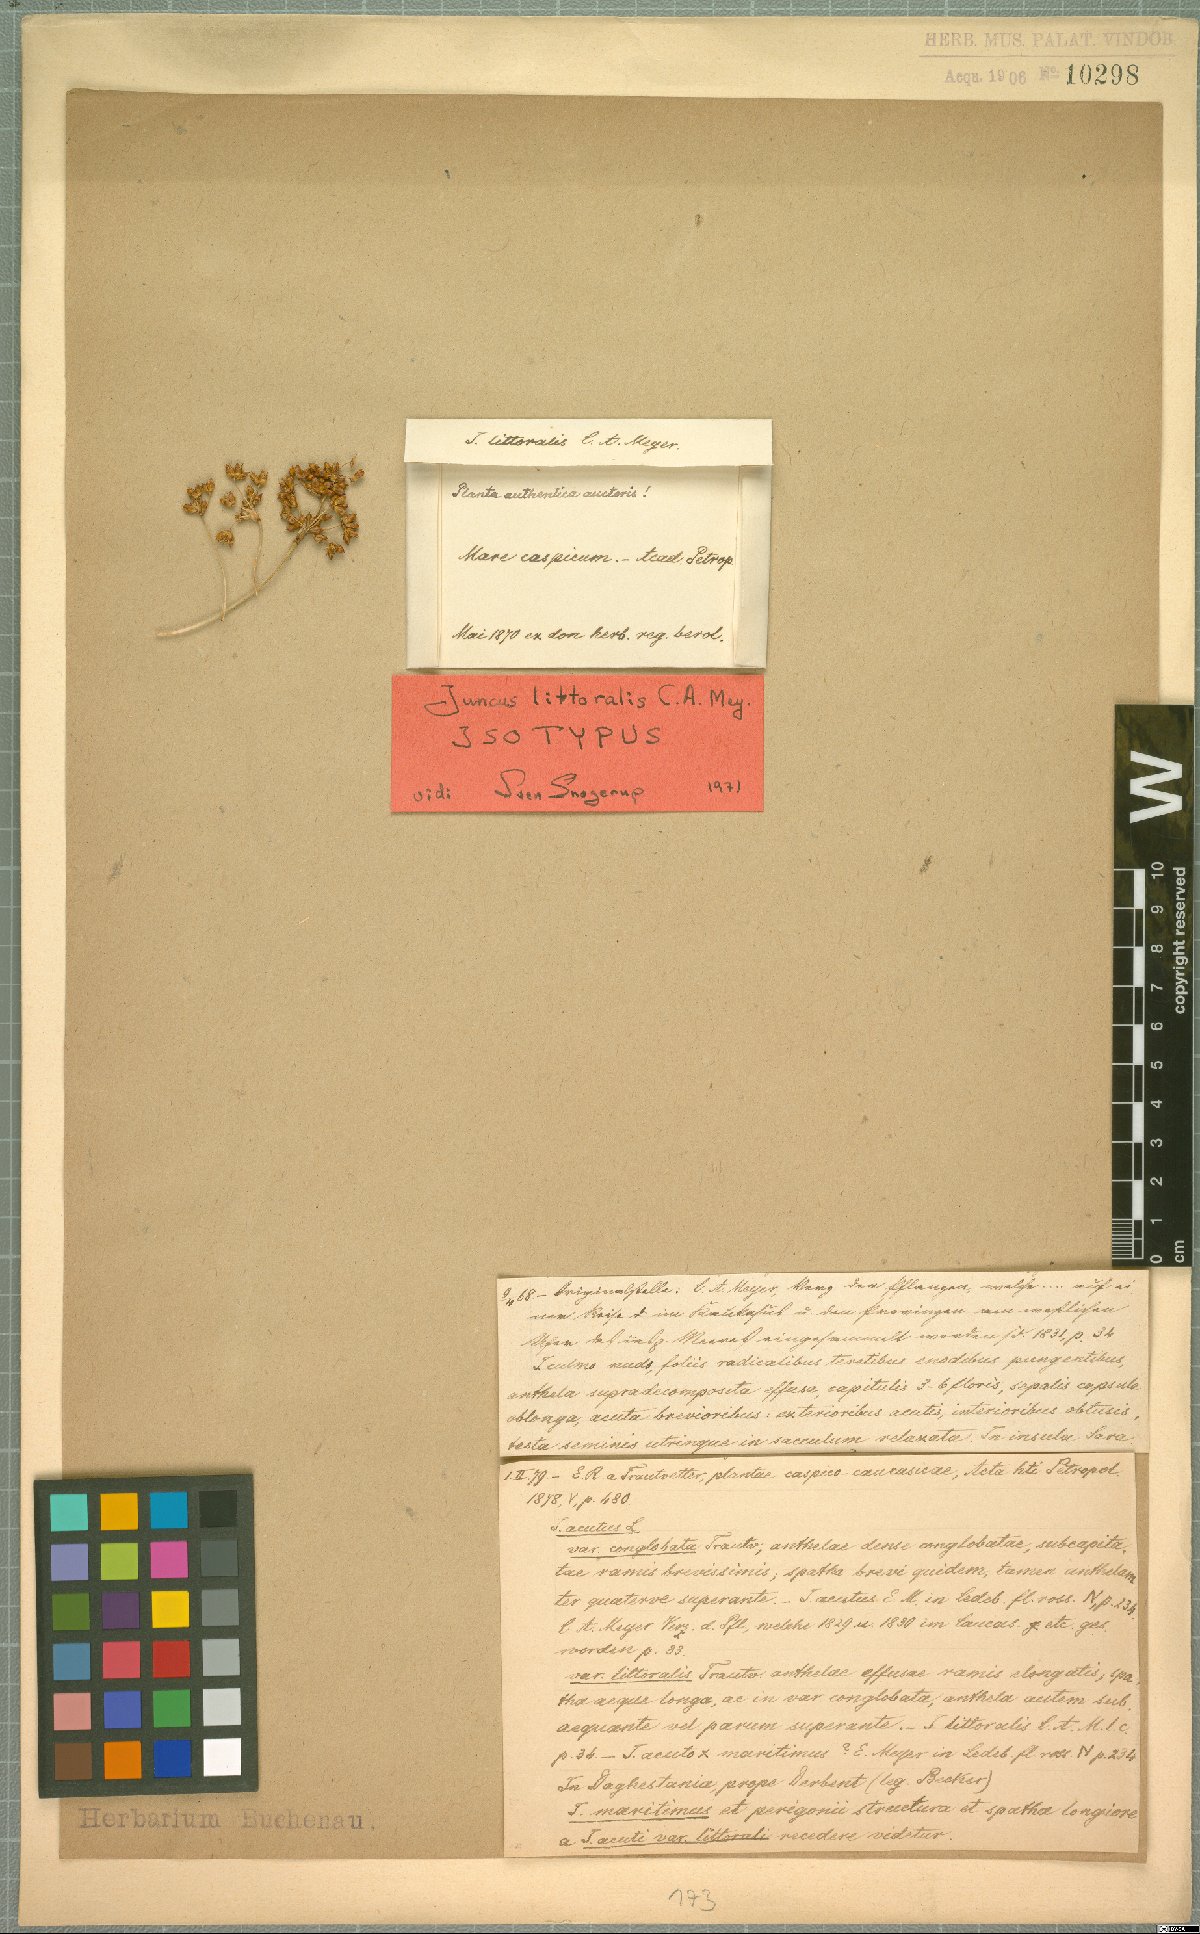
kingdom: Plantae
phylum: Tracheophyta
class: Liliopsida
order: Poales
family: Juncaceae
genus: Juncus
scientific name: Juncus littoralis
